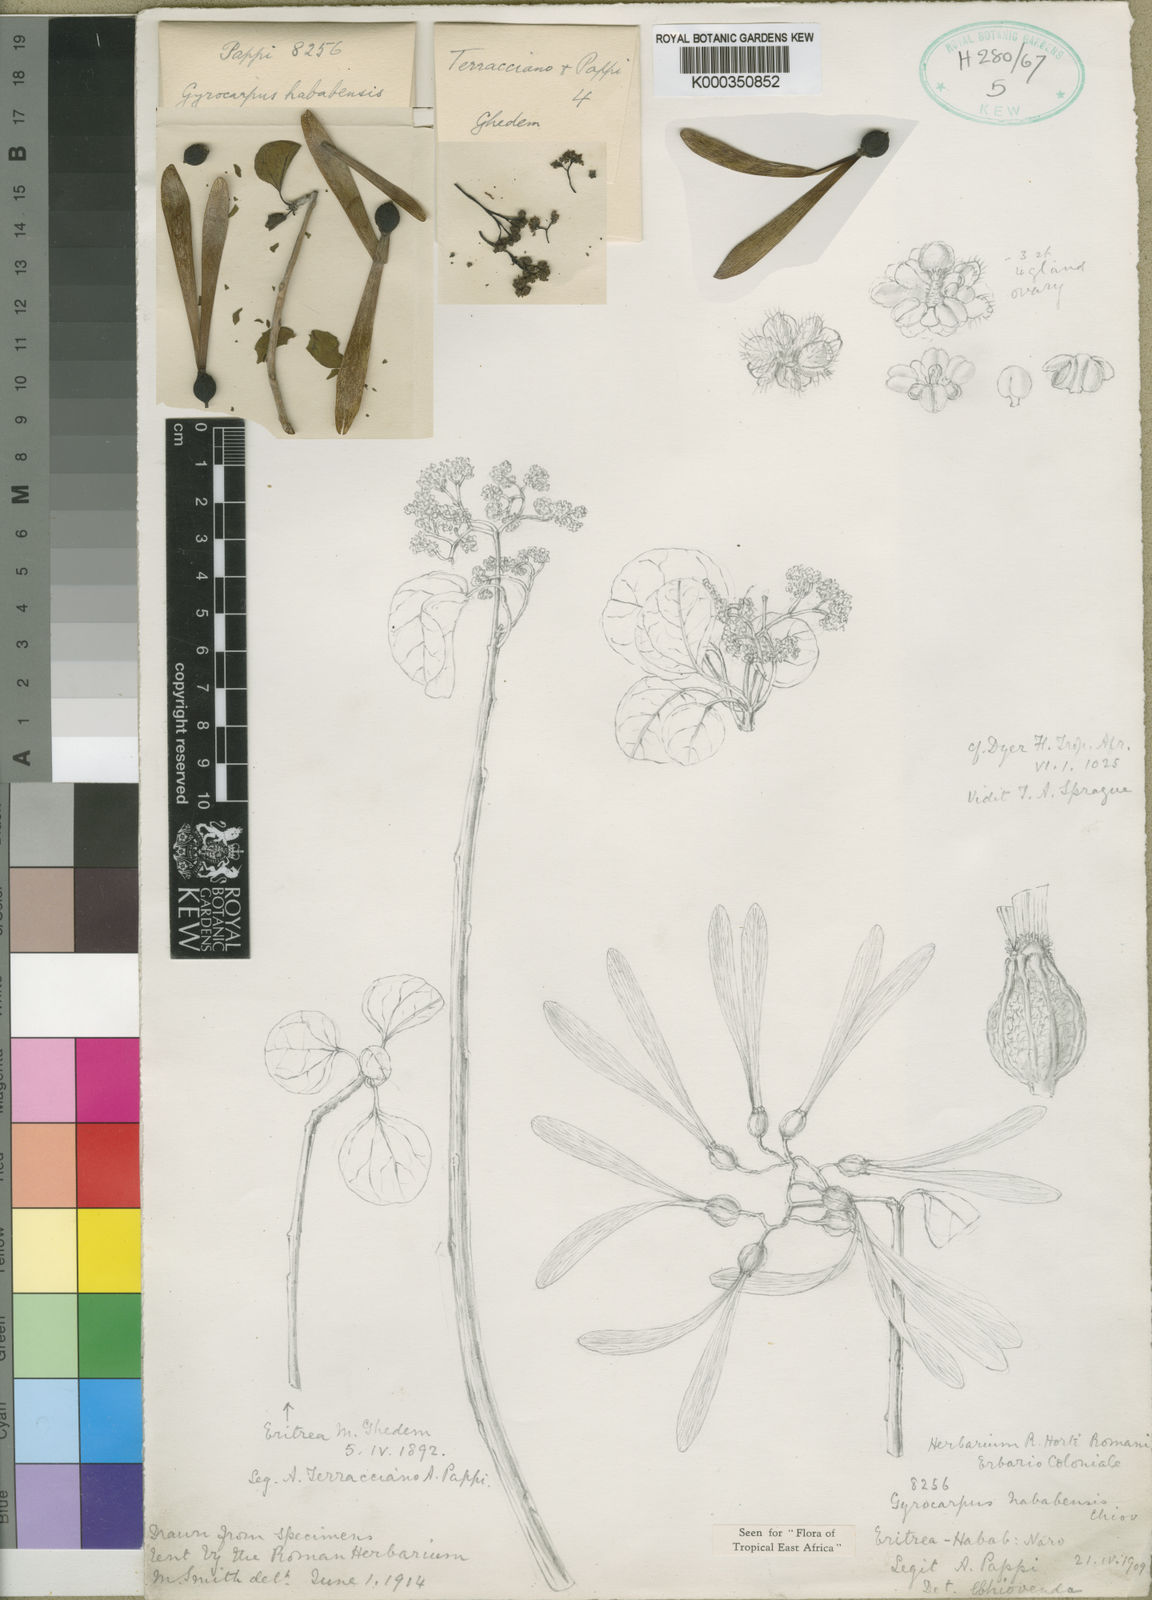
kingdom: Plantae
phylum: Tracheophyta
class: Magnoliopsida
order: Laurales
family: Hernandiaceae
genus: Gyrocarpus
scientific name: Gyrocarpus hababensis
